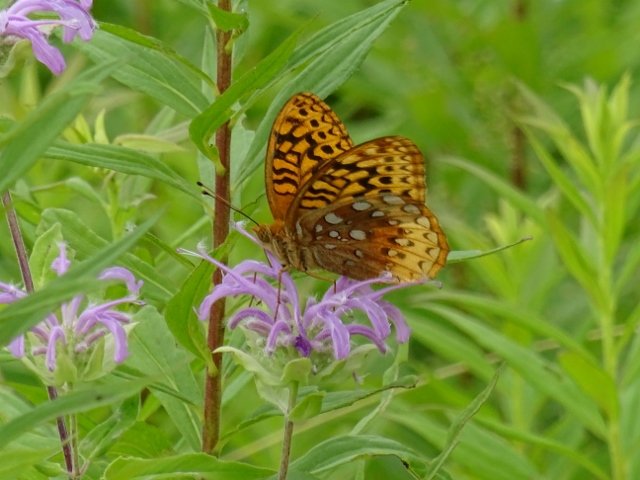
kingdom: Animalia
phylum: Arthropoda
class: Insecta
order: Lepidoptera
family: Nymphalidae
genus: Speyeria
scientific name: Speyeria cybele
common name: Great Spangled Fritillary
